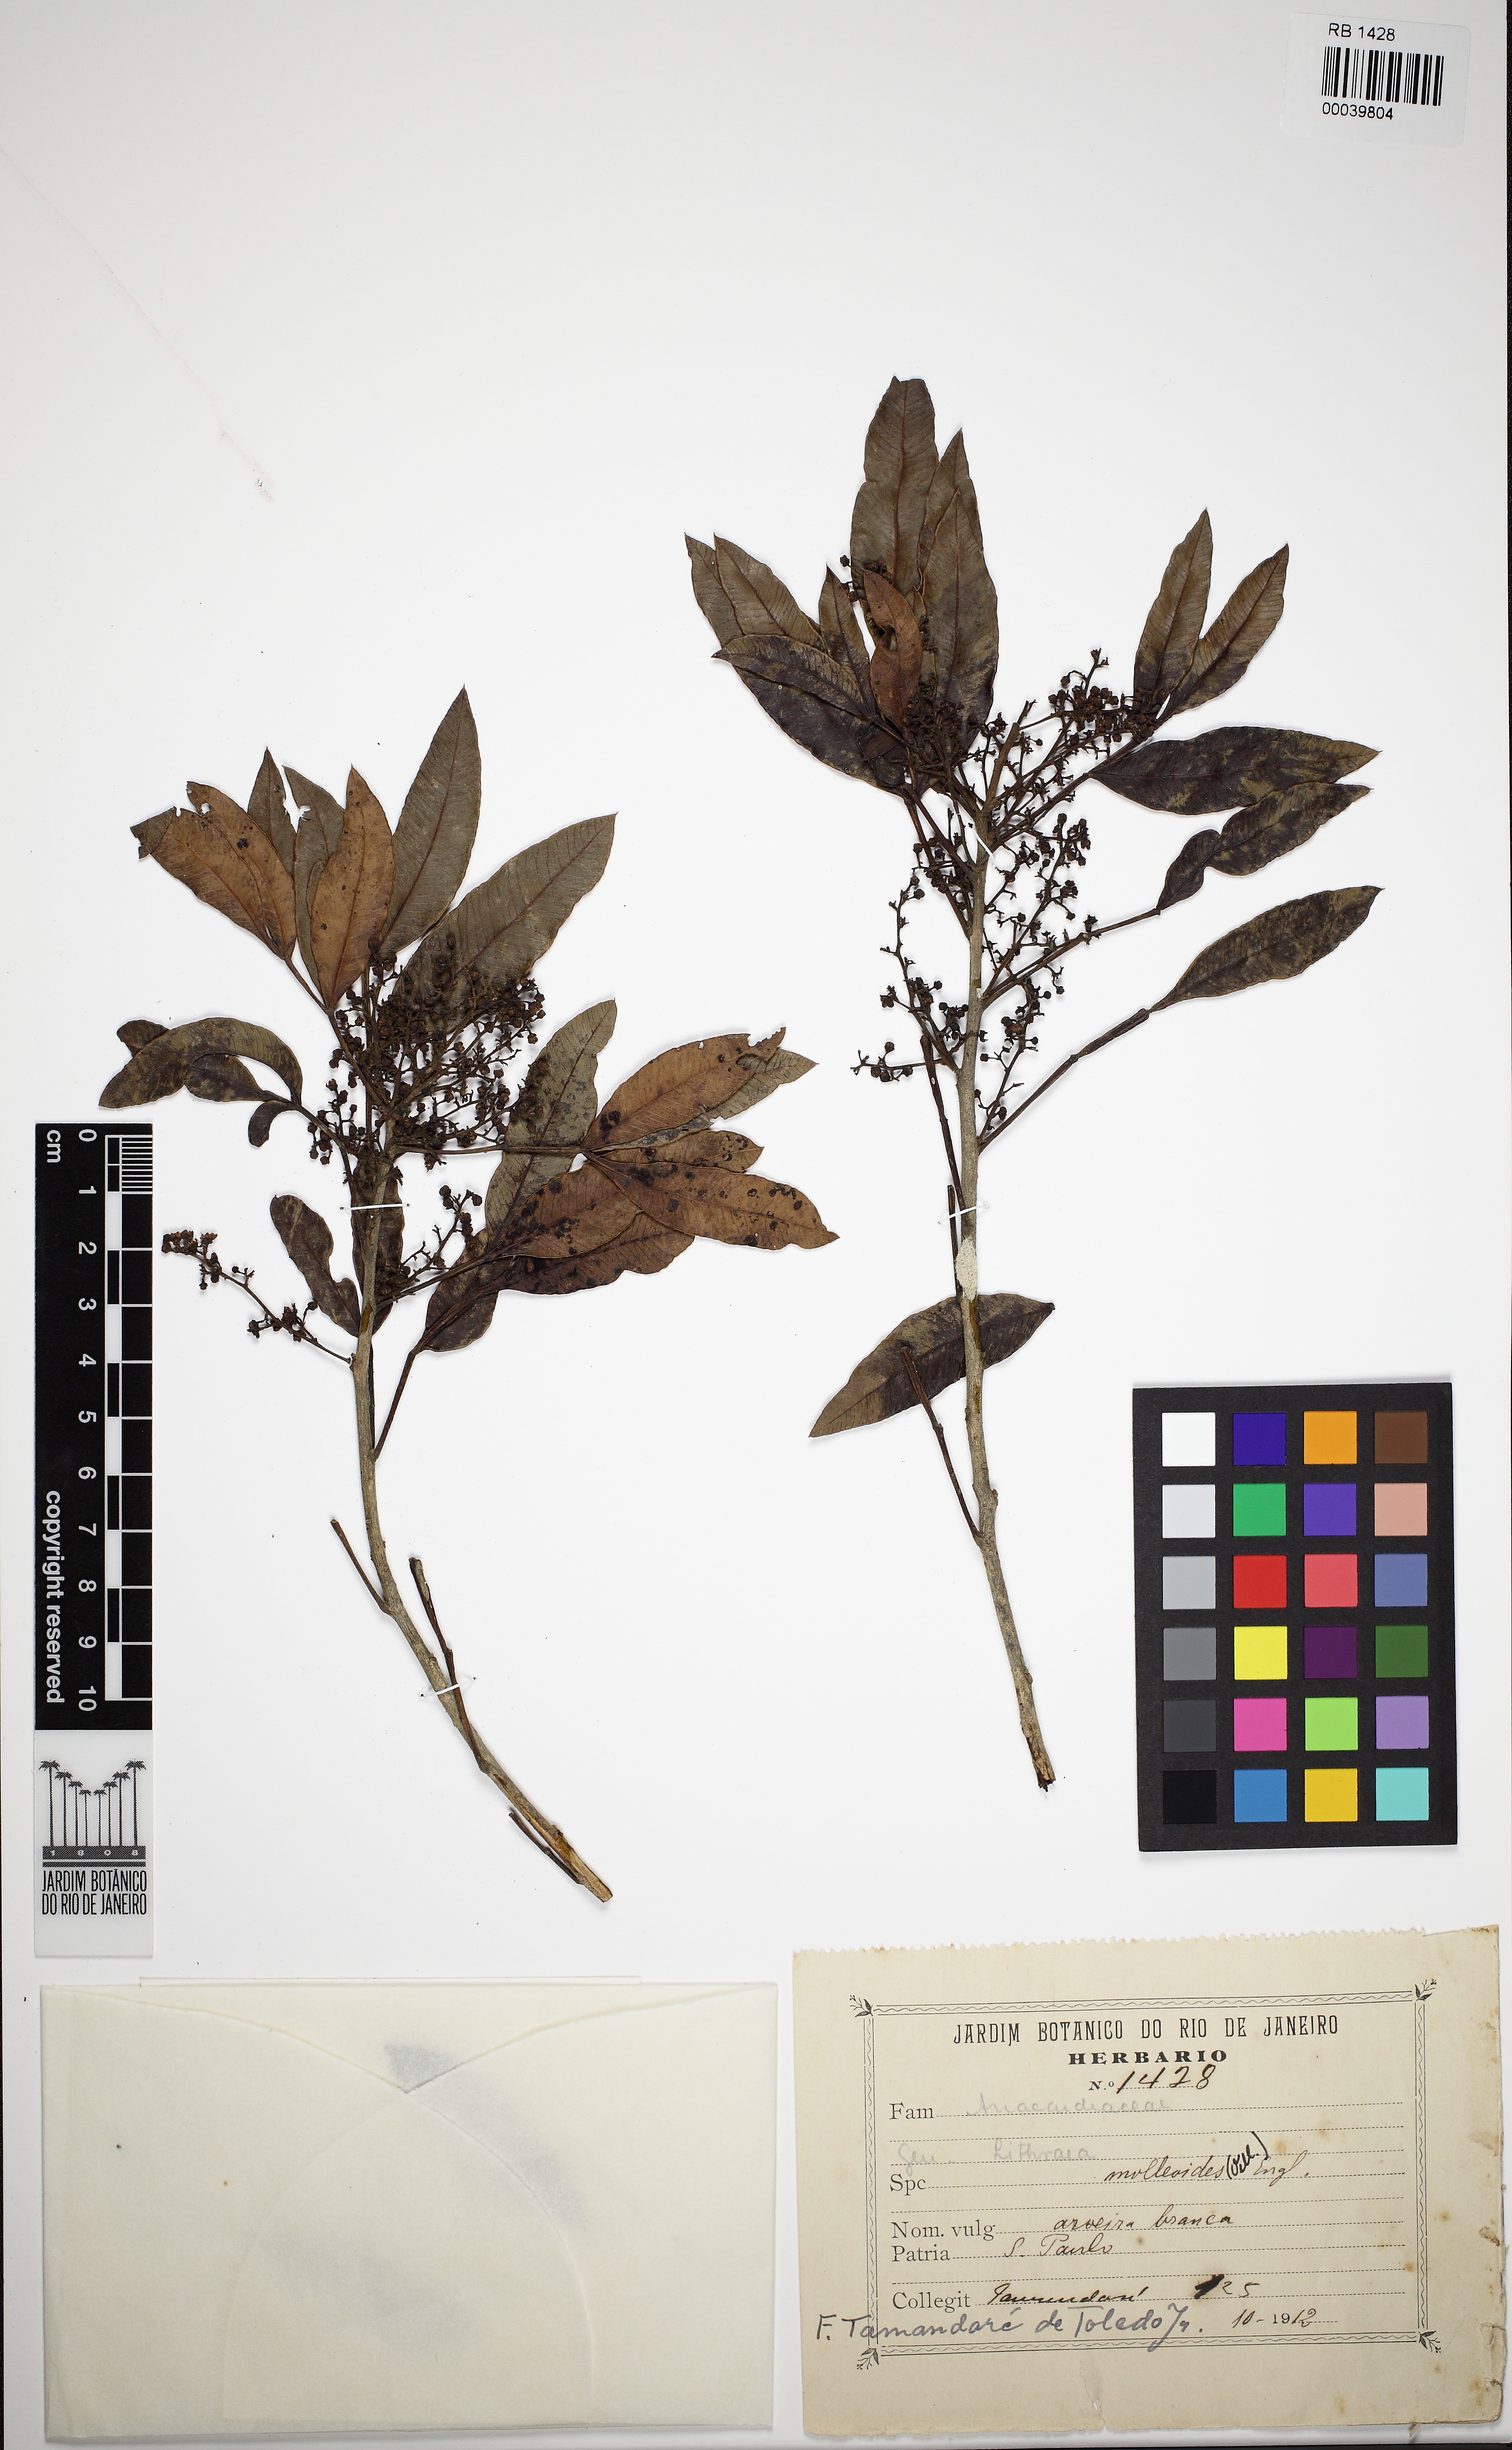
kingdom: Plantae
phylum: Tracheophyta
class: Magnoliopsida
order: Sapindales
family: Anacardiaceae
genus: Lithraea
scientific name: Lithraea molleoides
